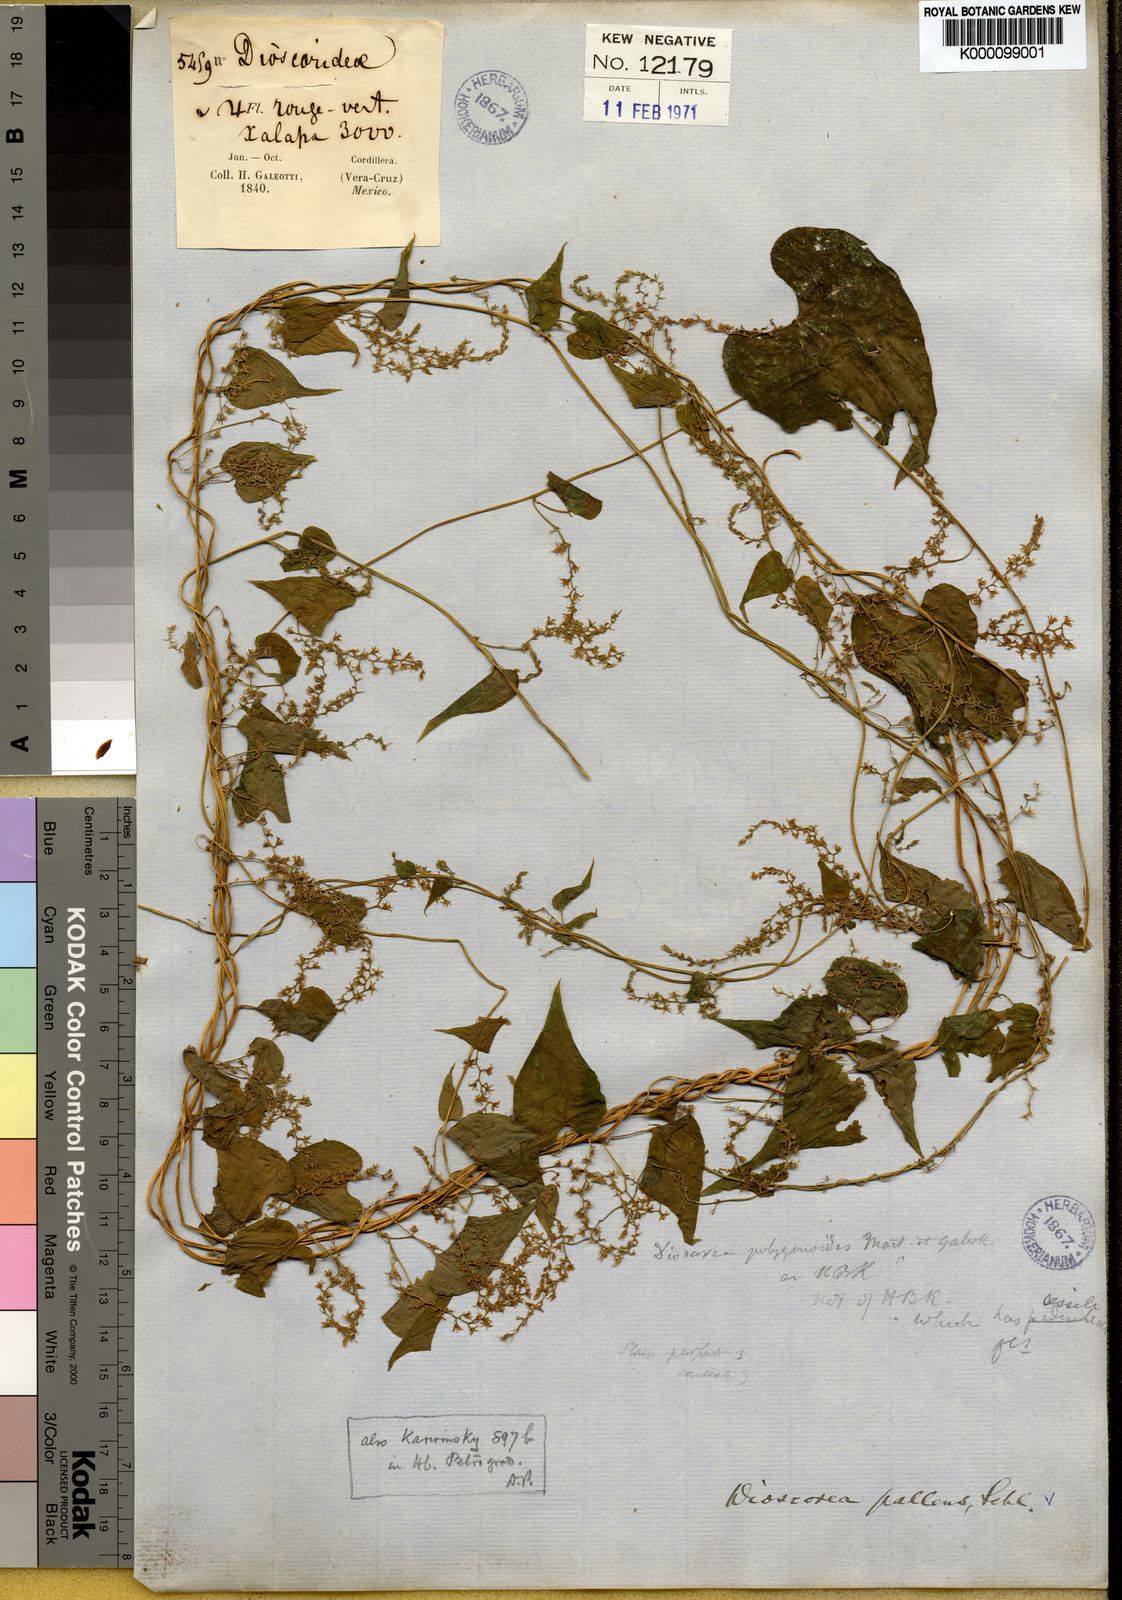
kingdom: Plantae
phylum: Tracheophyta
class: Liliopsida
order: Dioscoreales
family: Dioscoreaceae
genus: Dioscorea
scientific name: Dioscorea pallens
